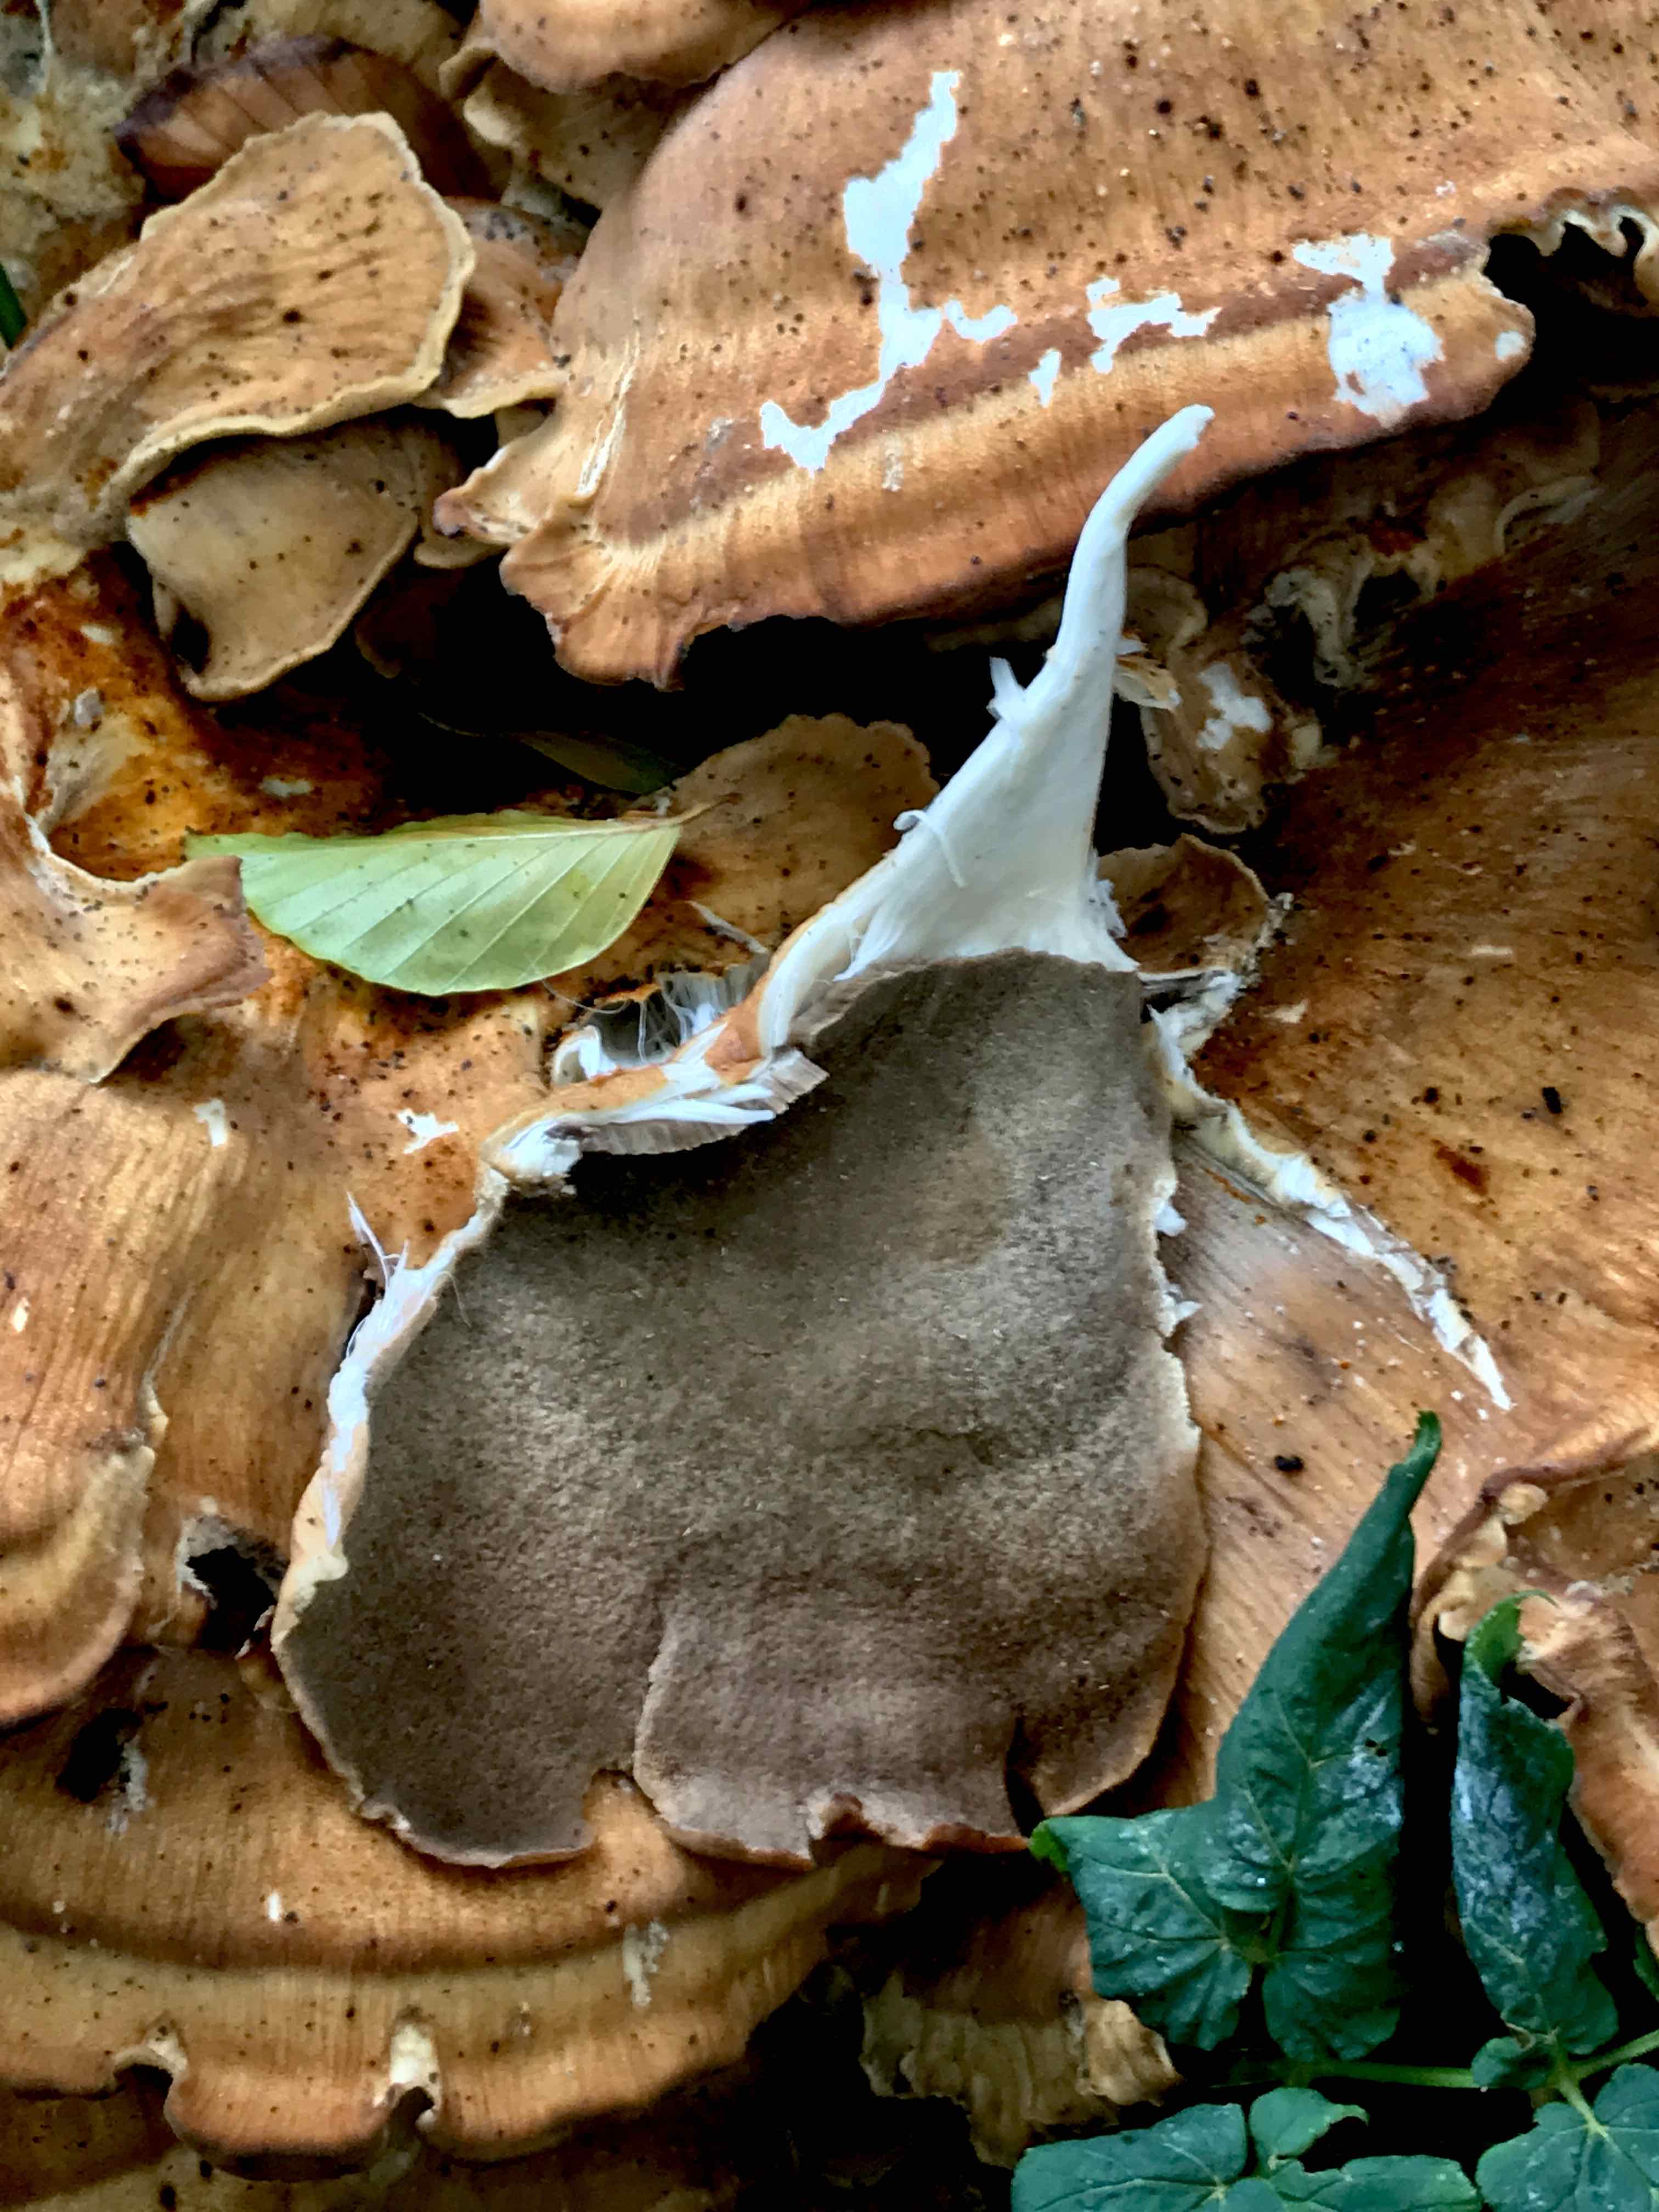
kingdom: Fungi
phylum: Basidiomycota
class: Agaricomycetes
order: Polyporales
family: Meripilaceae
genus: Meripilus
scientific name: Meripilus giganteus
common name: kæmpeporesvamp
